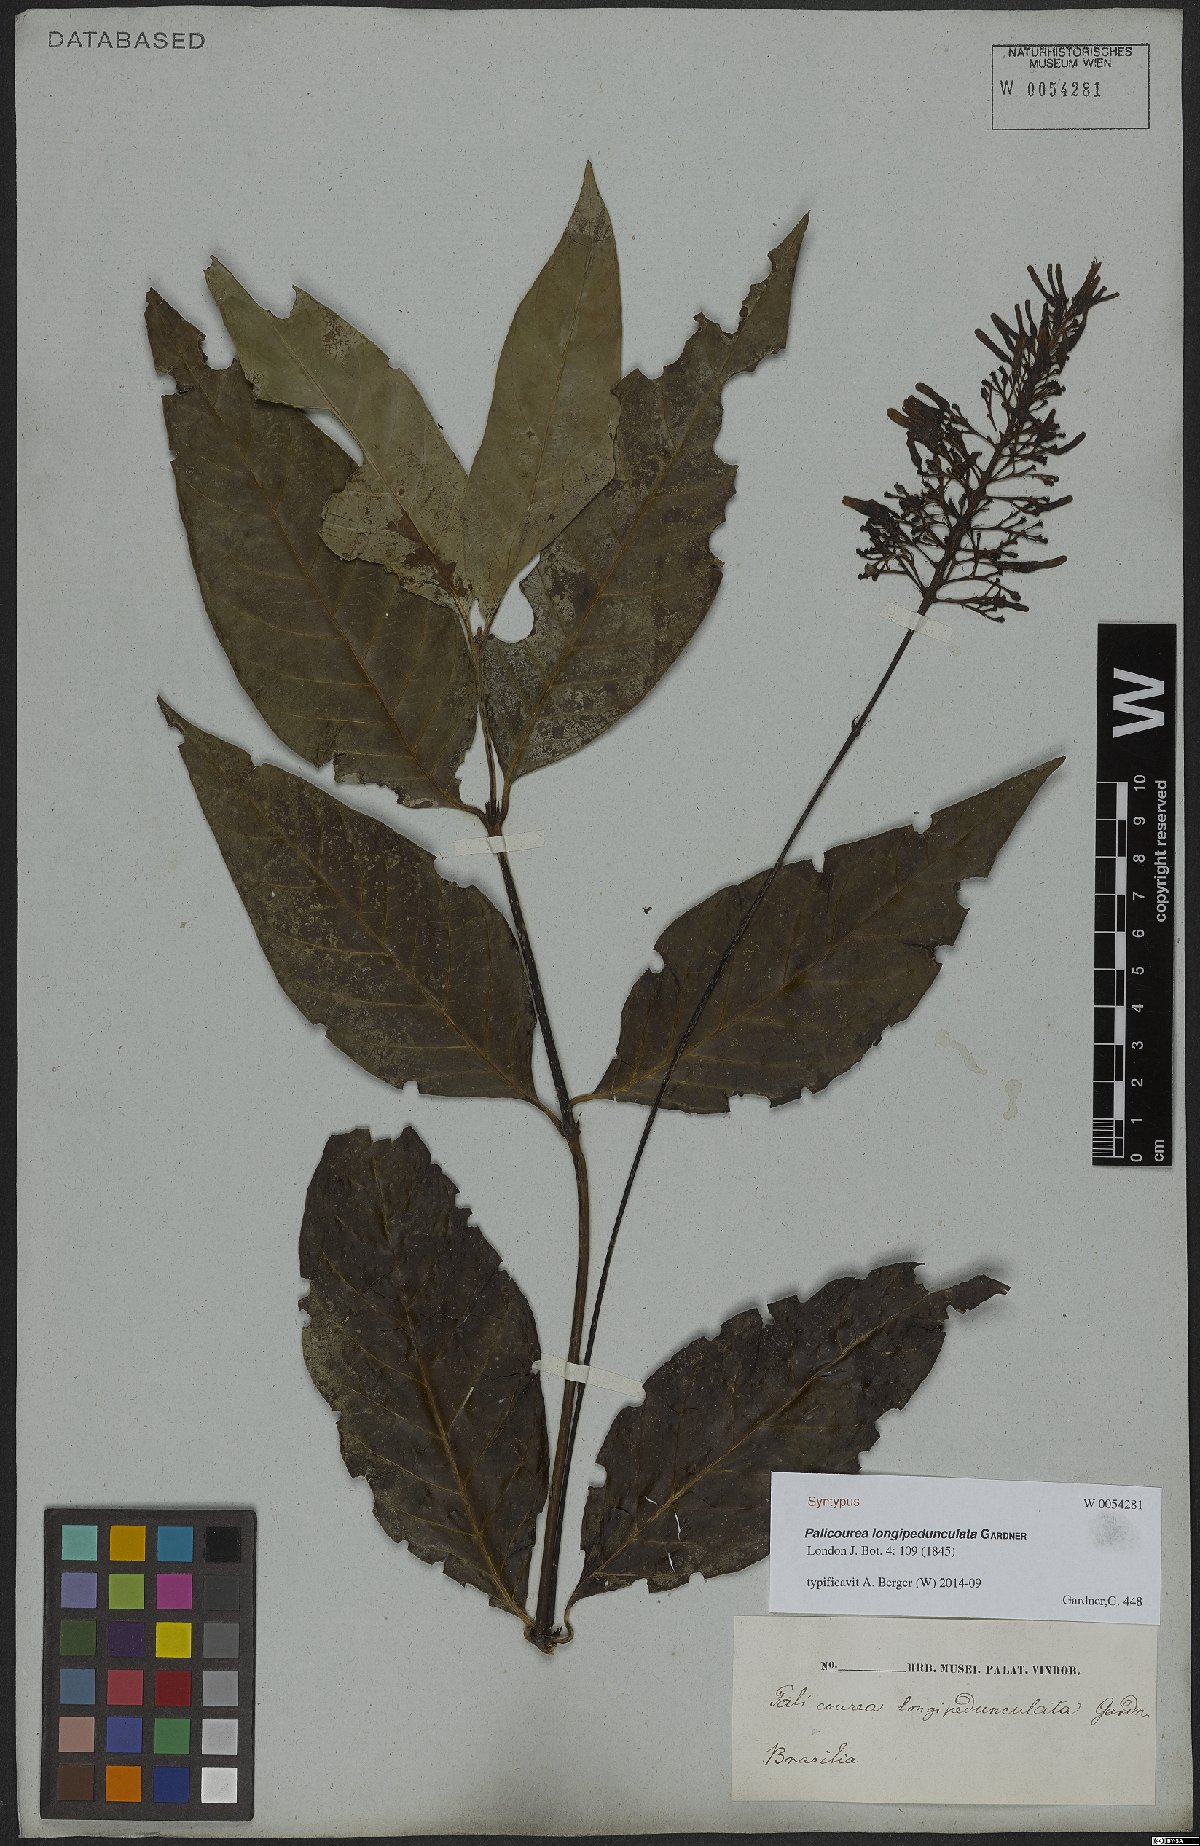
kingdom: Plantae
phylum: Tracheophyta
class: Magnoliopsida
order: Gentianales
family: Rubiaceae
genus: Palicourea
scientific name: Palicourea longipedunculata
